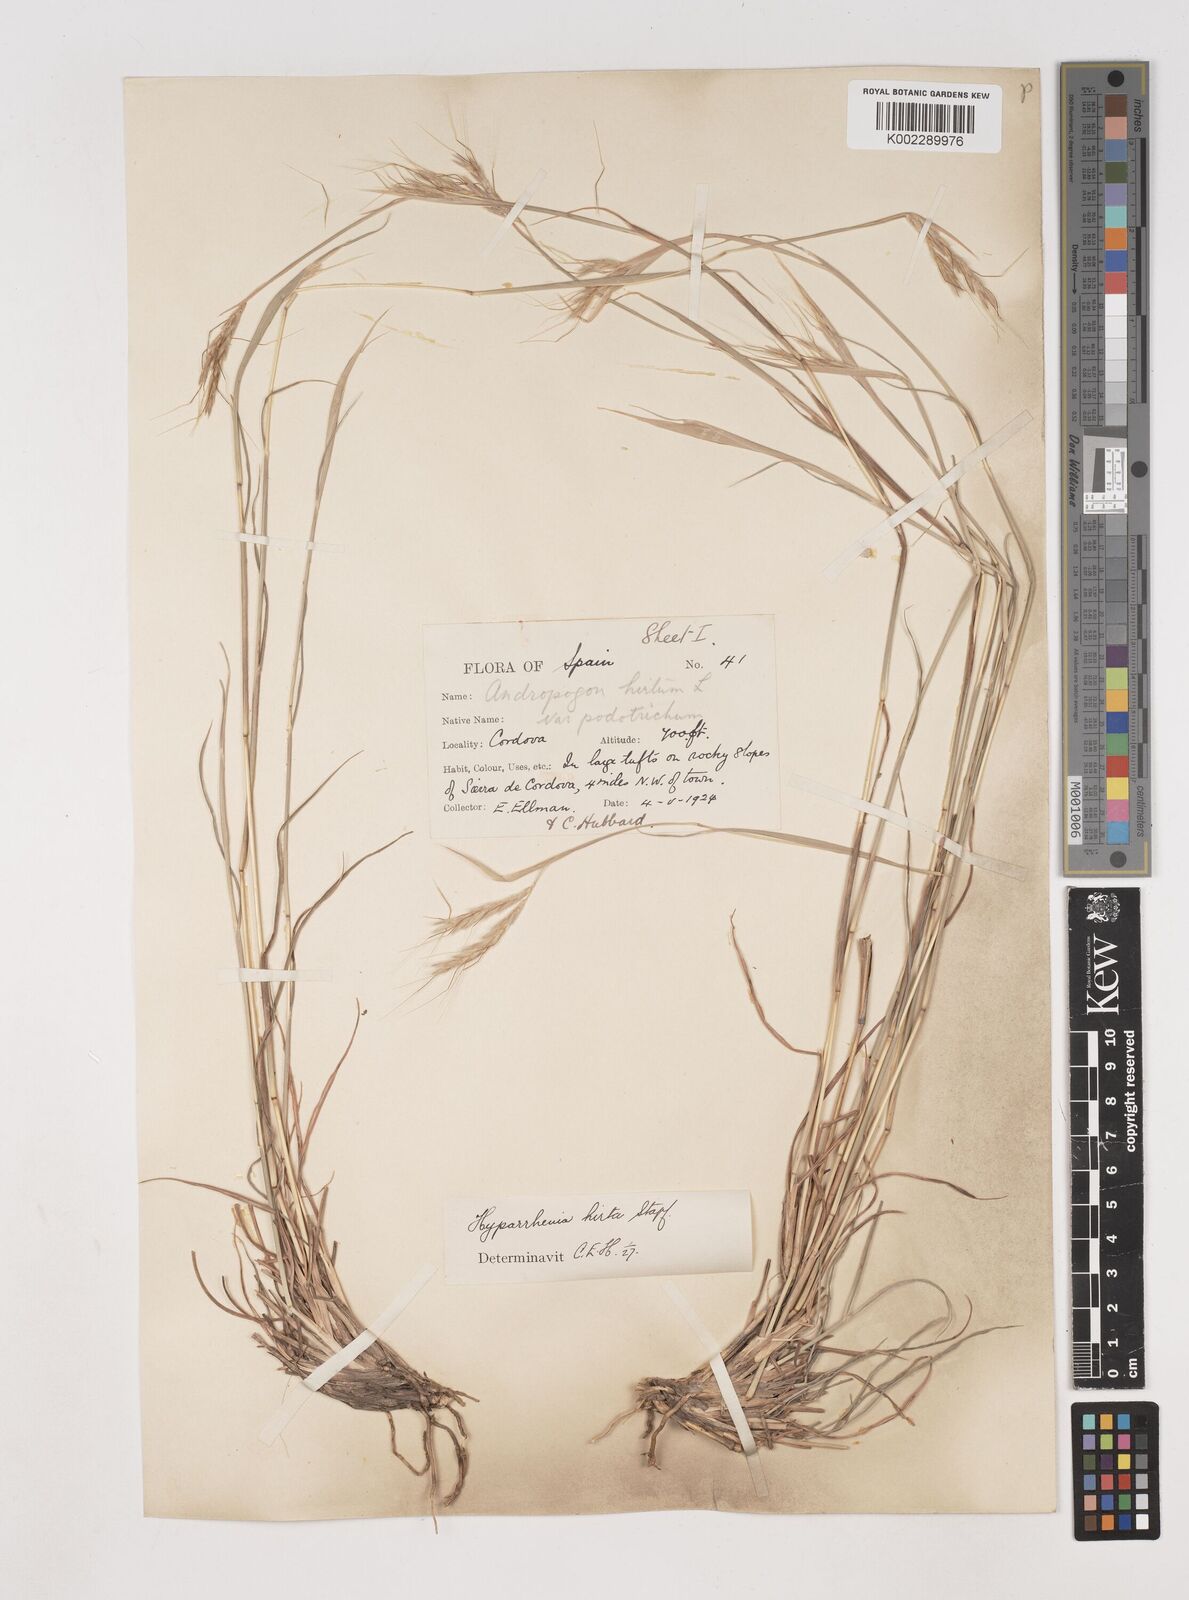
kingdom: Plantae
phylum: Tracheophyta
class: Liliopsida
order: Poales
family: Poaceae
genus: Hyparrhenia
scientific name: Hyparrhenia hirta
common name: Thatching grass
